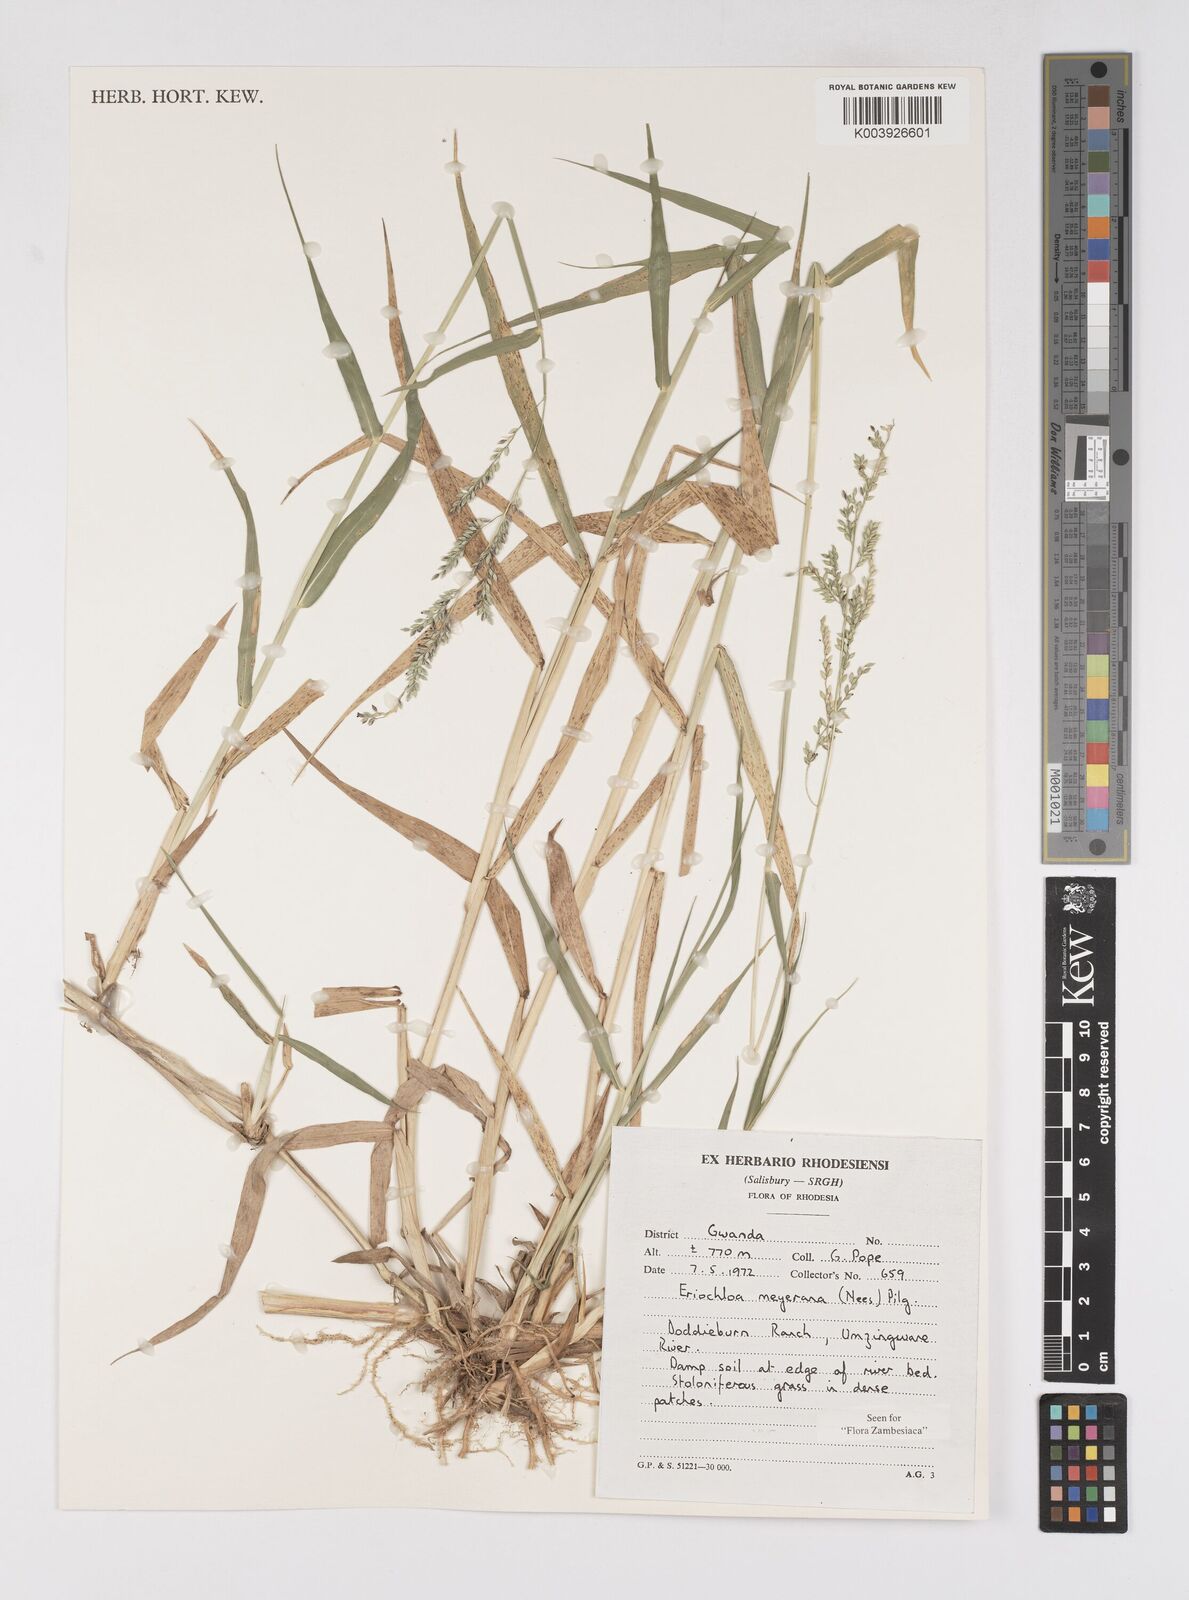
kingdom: Plantae
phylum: Tracheophyta
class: Liliopsida
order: Poales
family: Poaceae
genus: Eriochloa
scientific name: Eriochloa meyeriana
